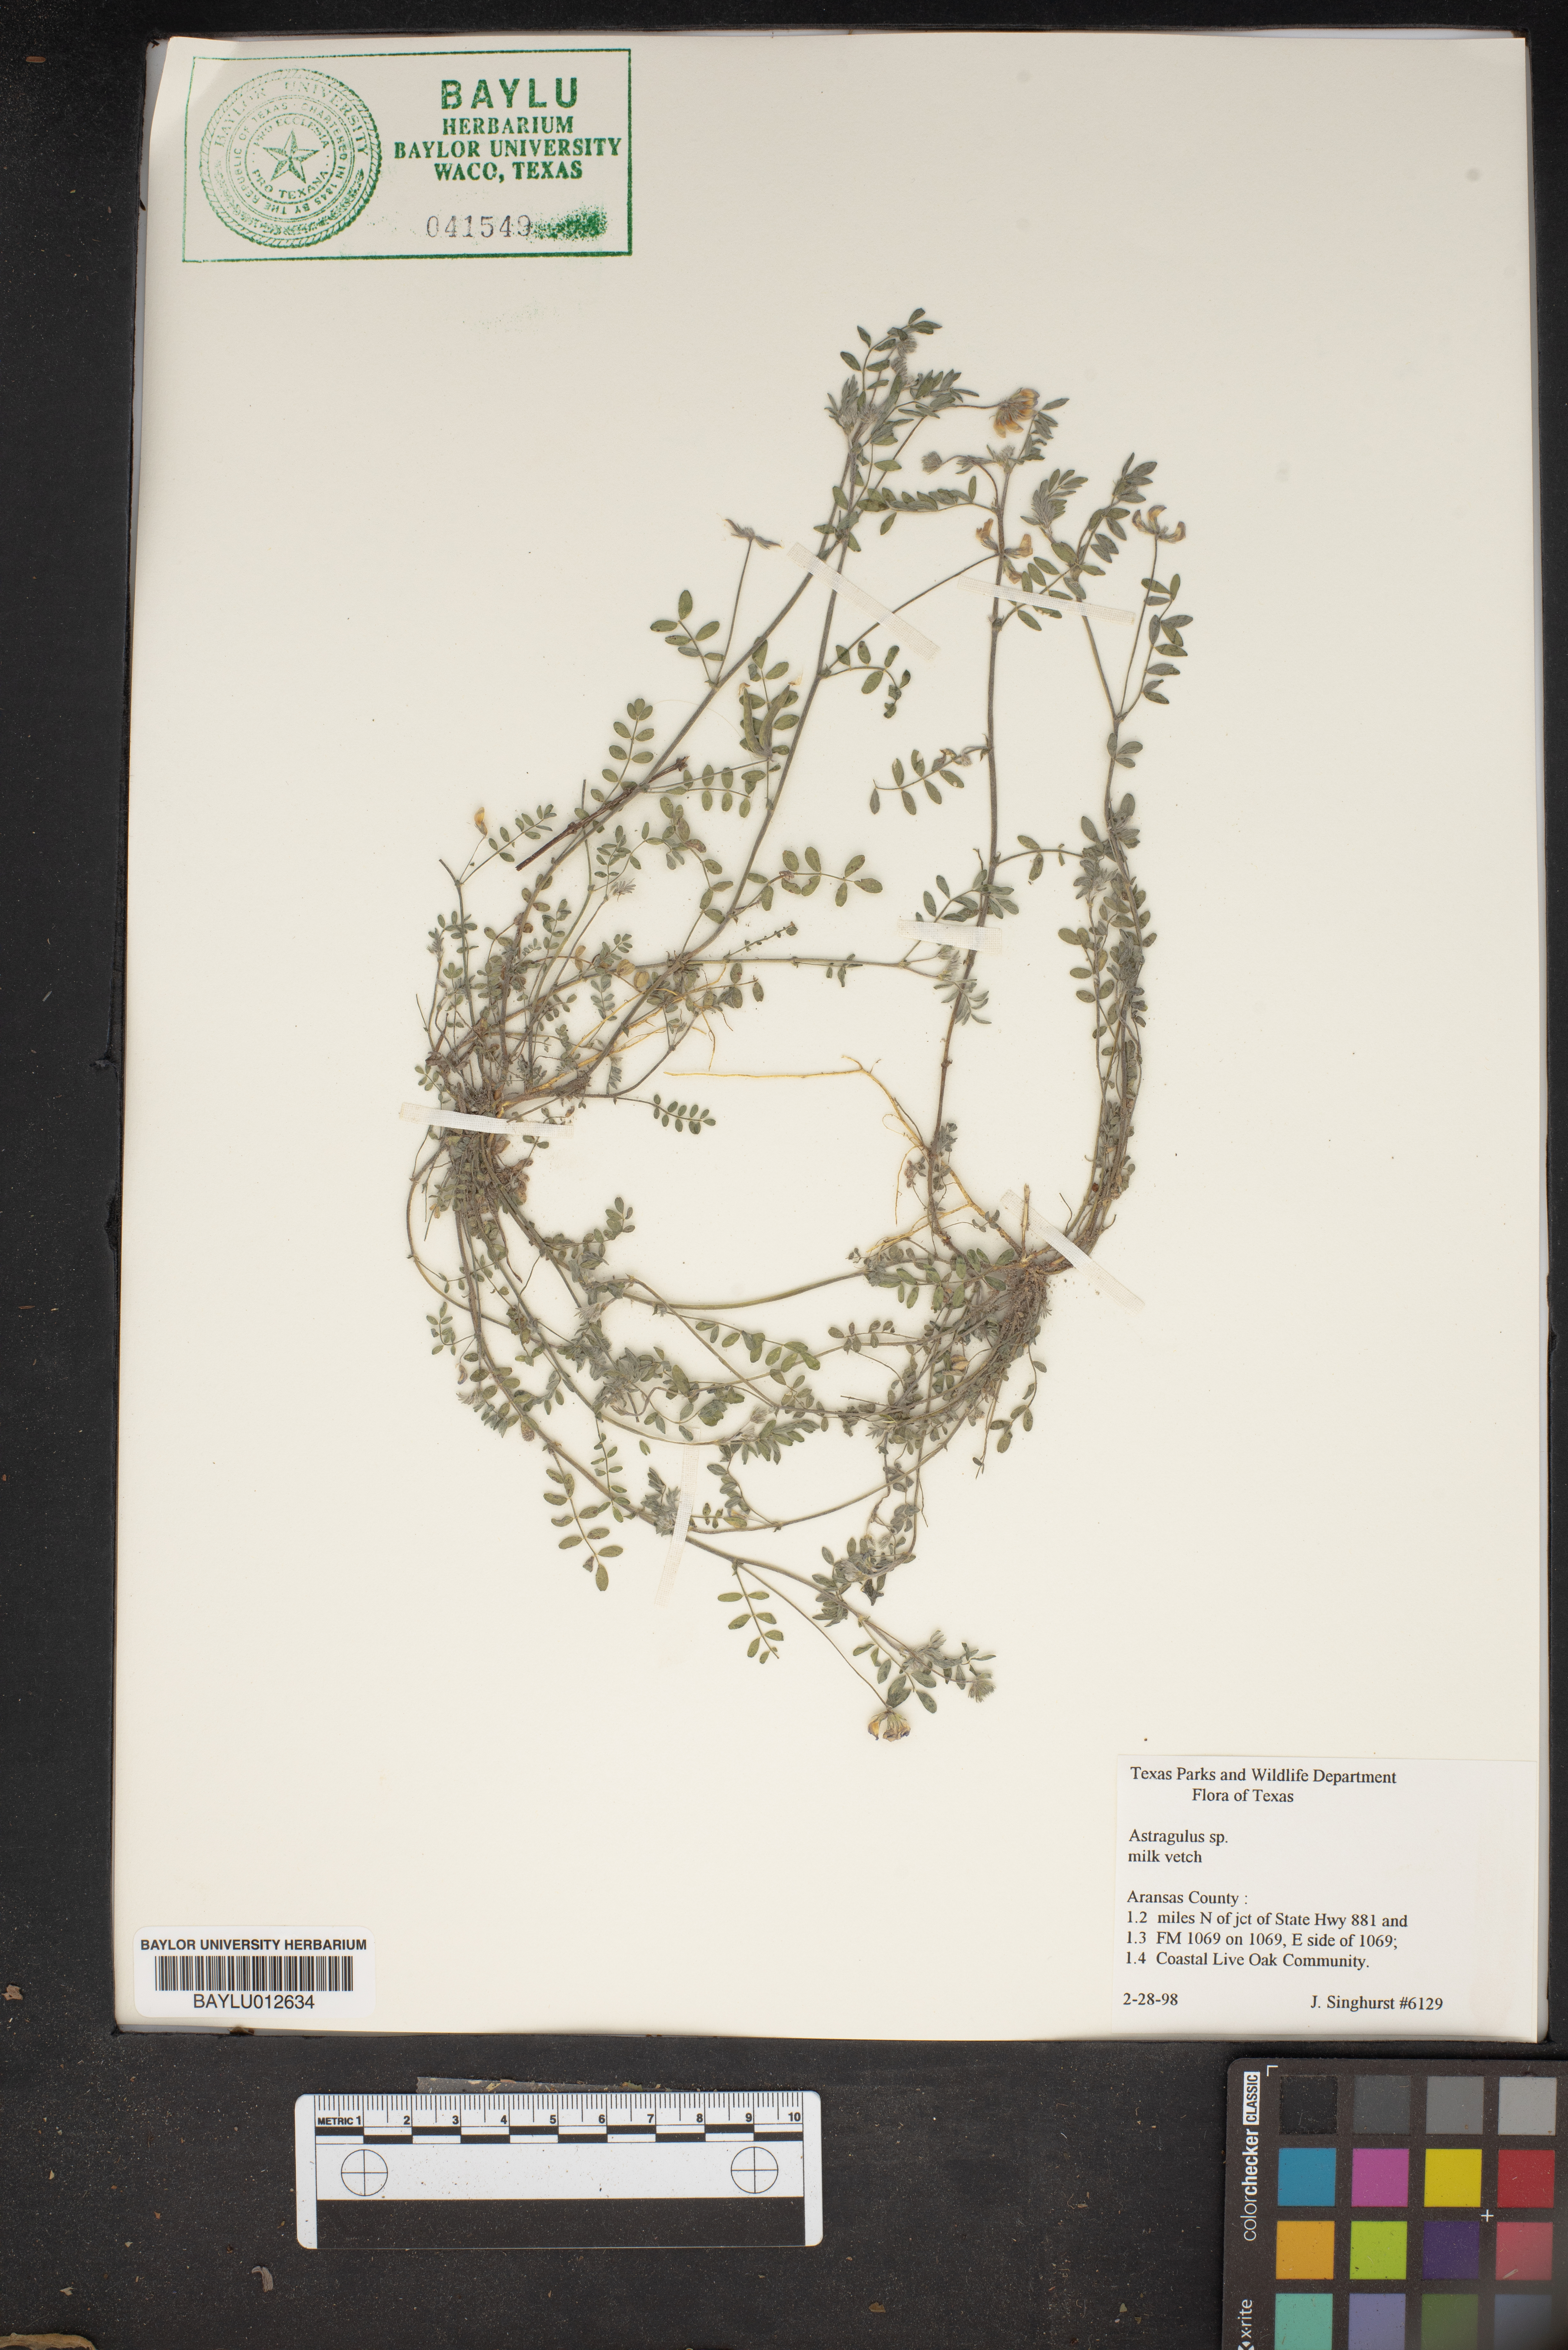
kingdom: Plantae
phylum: Tracheophyta
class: Magnoliopsida
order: Fabales
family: Fabaceae
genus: Astragalus
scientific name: Astragalus
